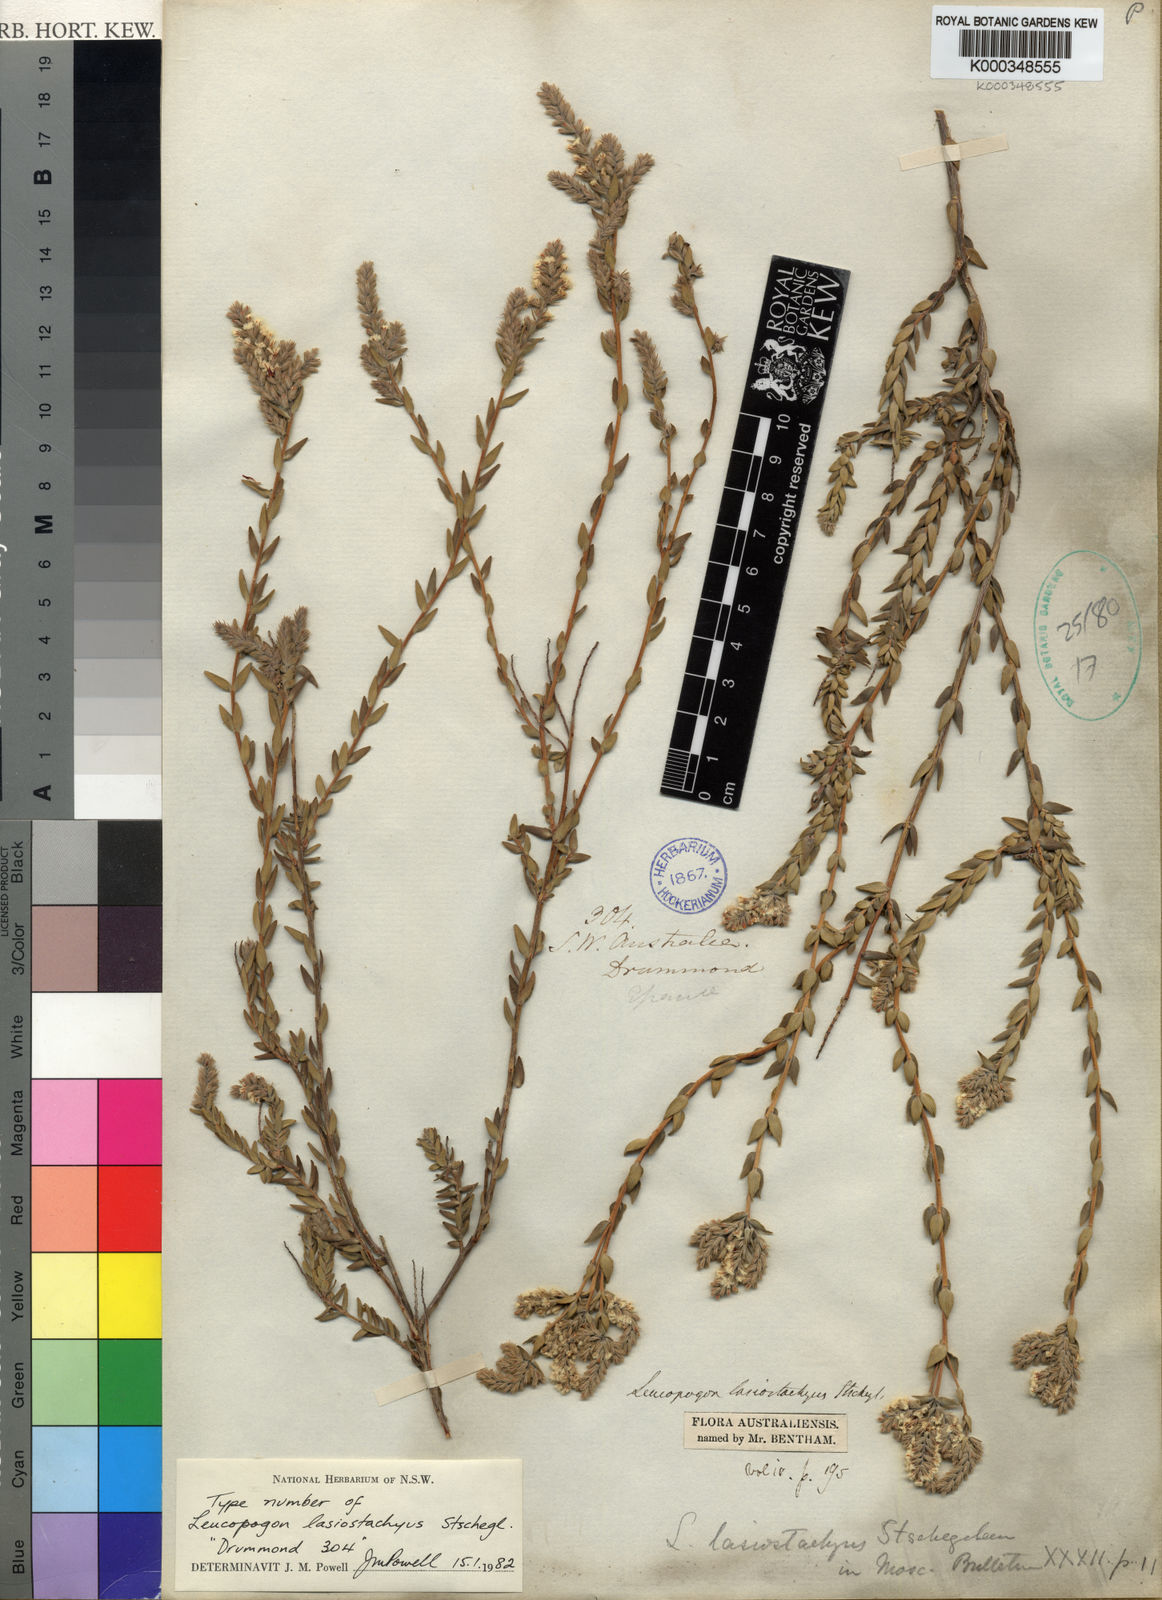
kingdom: Plantae
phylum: Tracheophyta
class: Magnoliopsida
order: Ericales
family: Ericaceae
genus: Leucopogon
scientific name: Leucopogon
